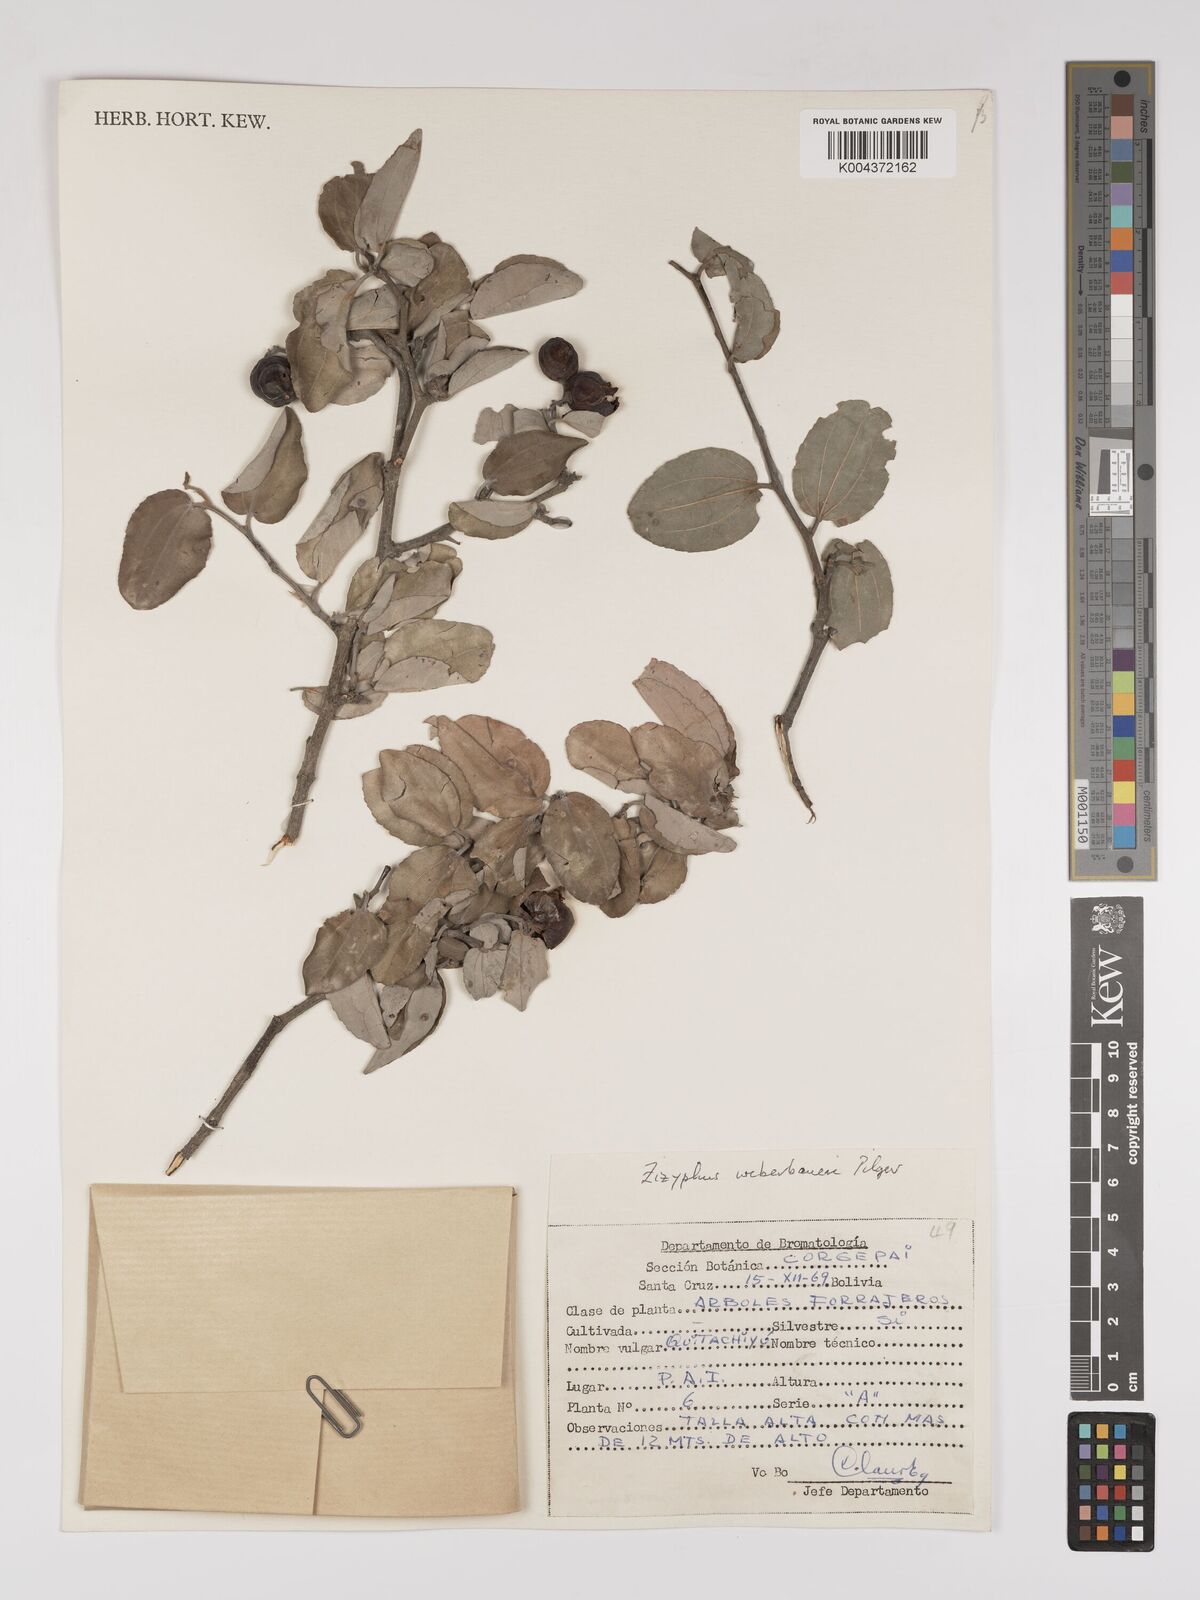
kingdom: Plantae
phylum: Tracheophyta
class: Magnoliopsida
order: Rosales
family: Rhamnaceae
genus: Sarcomphalus
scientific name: Sarcomphalus mistol
